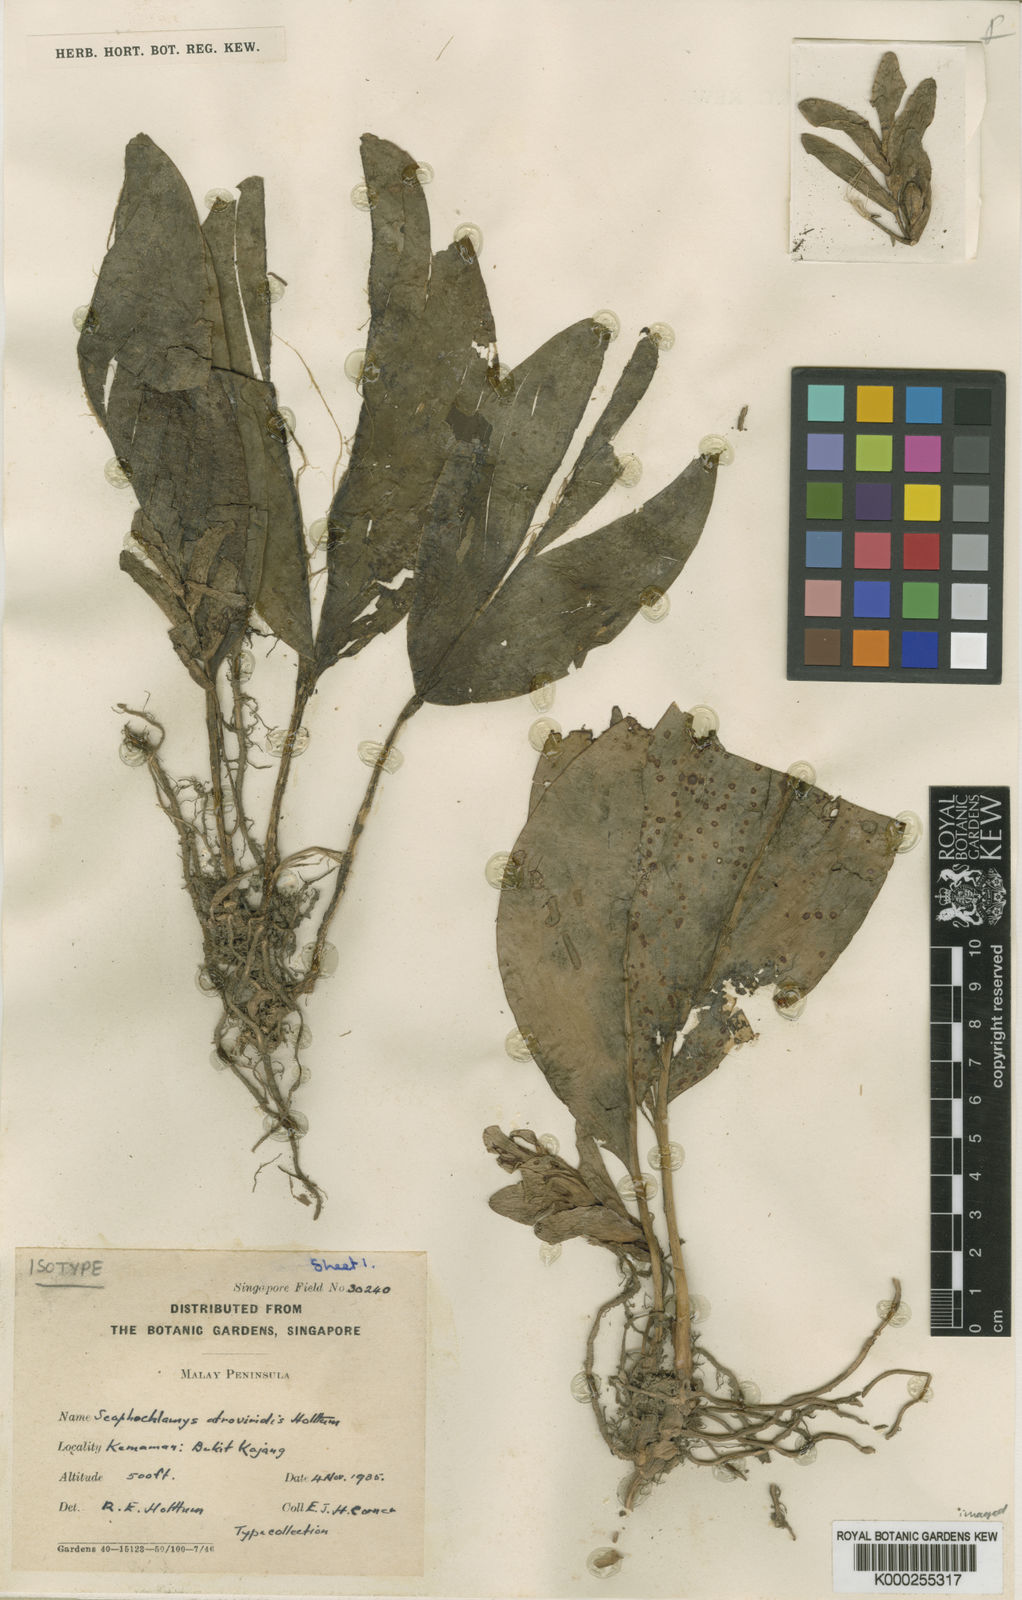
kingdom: Plantae
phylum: Tracheophyta
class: Liliopsida
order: Zingiberales
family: Zingiberaceae
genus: Scaphochlamys
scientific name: Scaphochlamys atroviridis
